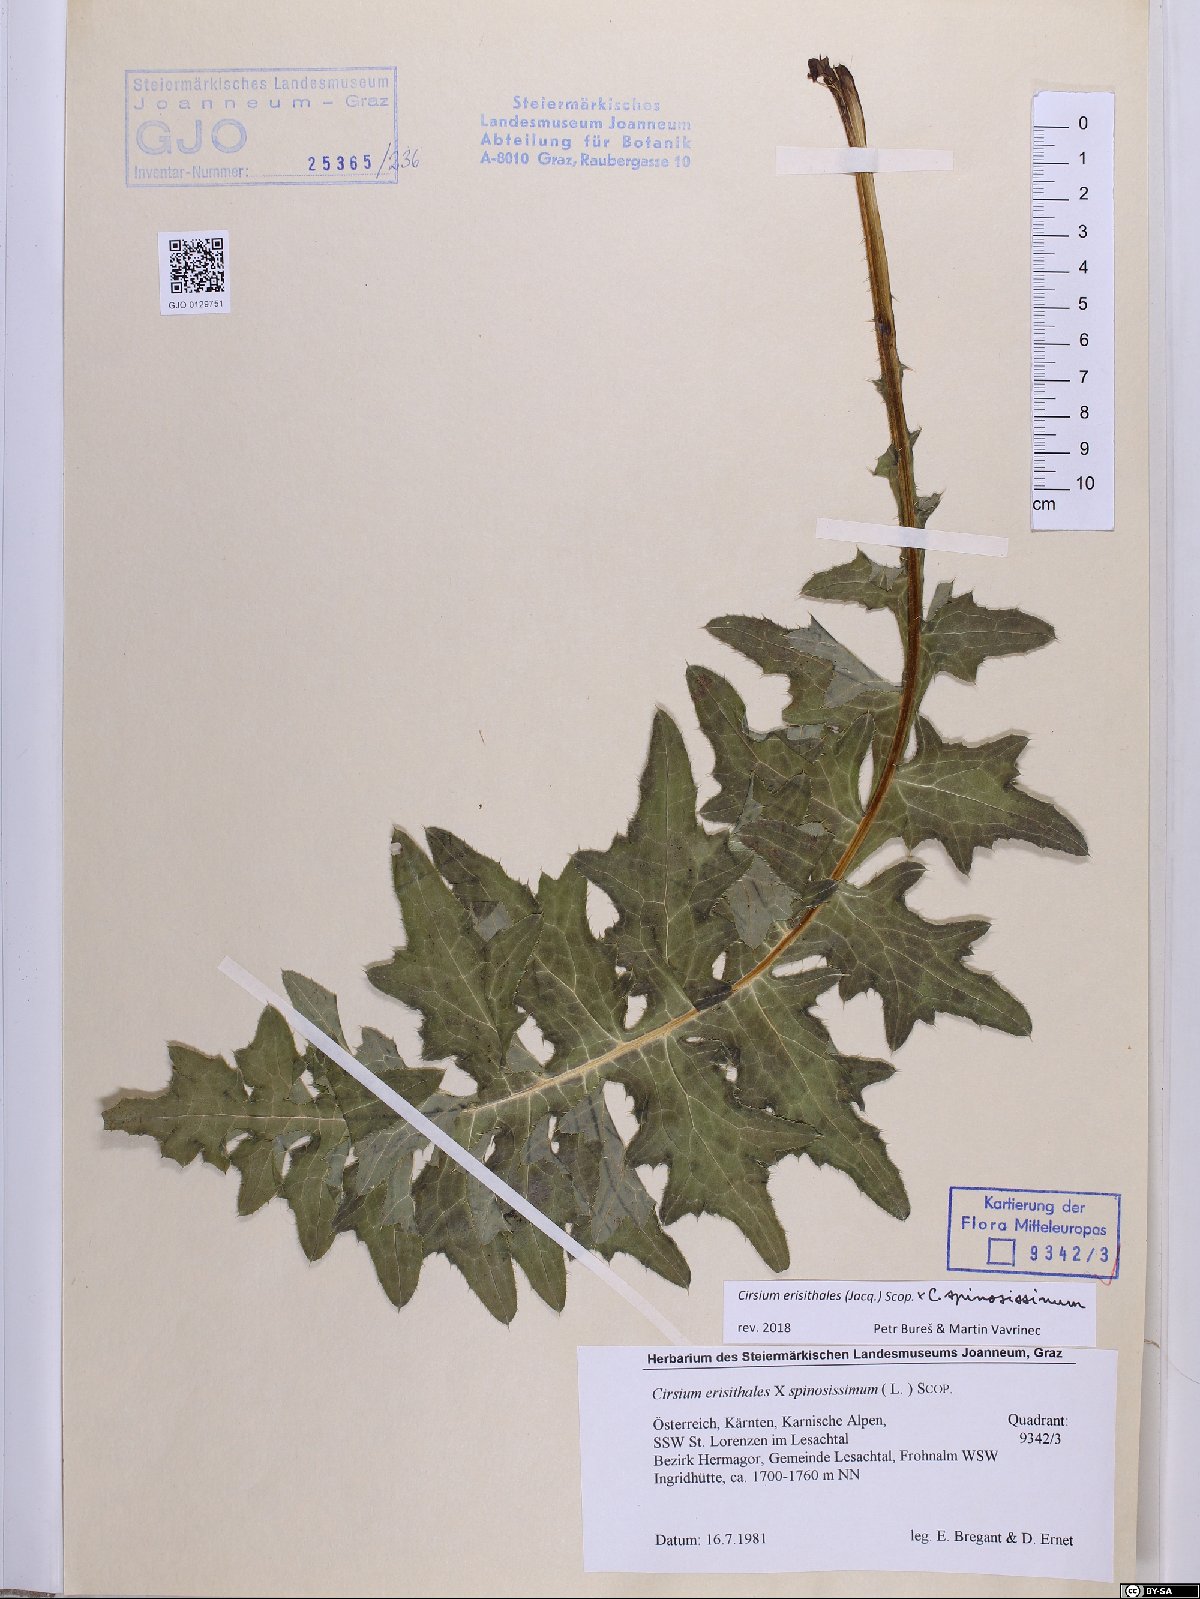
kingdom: Plantae
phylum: Tracheophyta
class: Magnoliopsida
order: Asterales
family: Asteraceae
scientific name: Asteraceae
